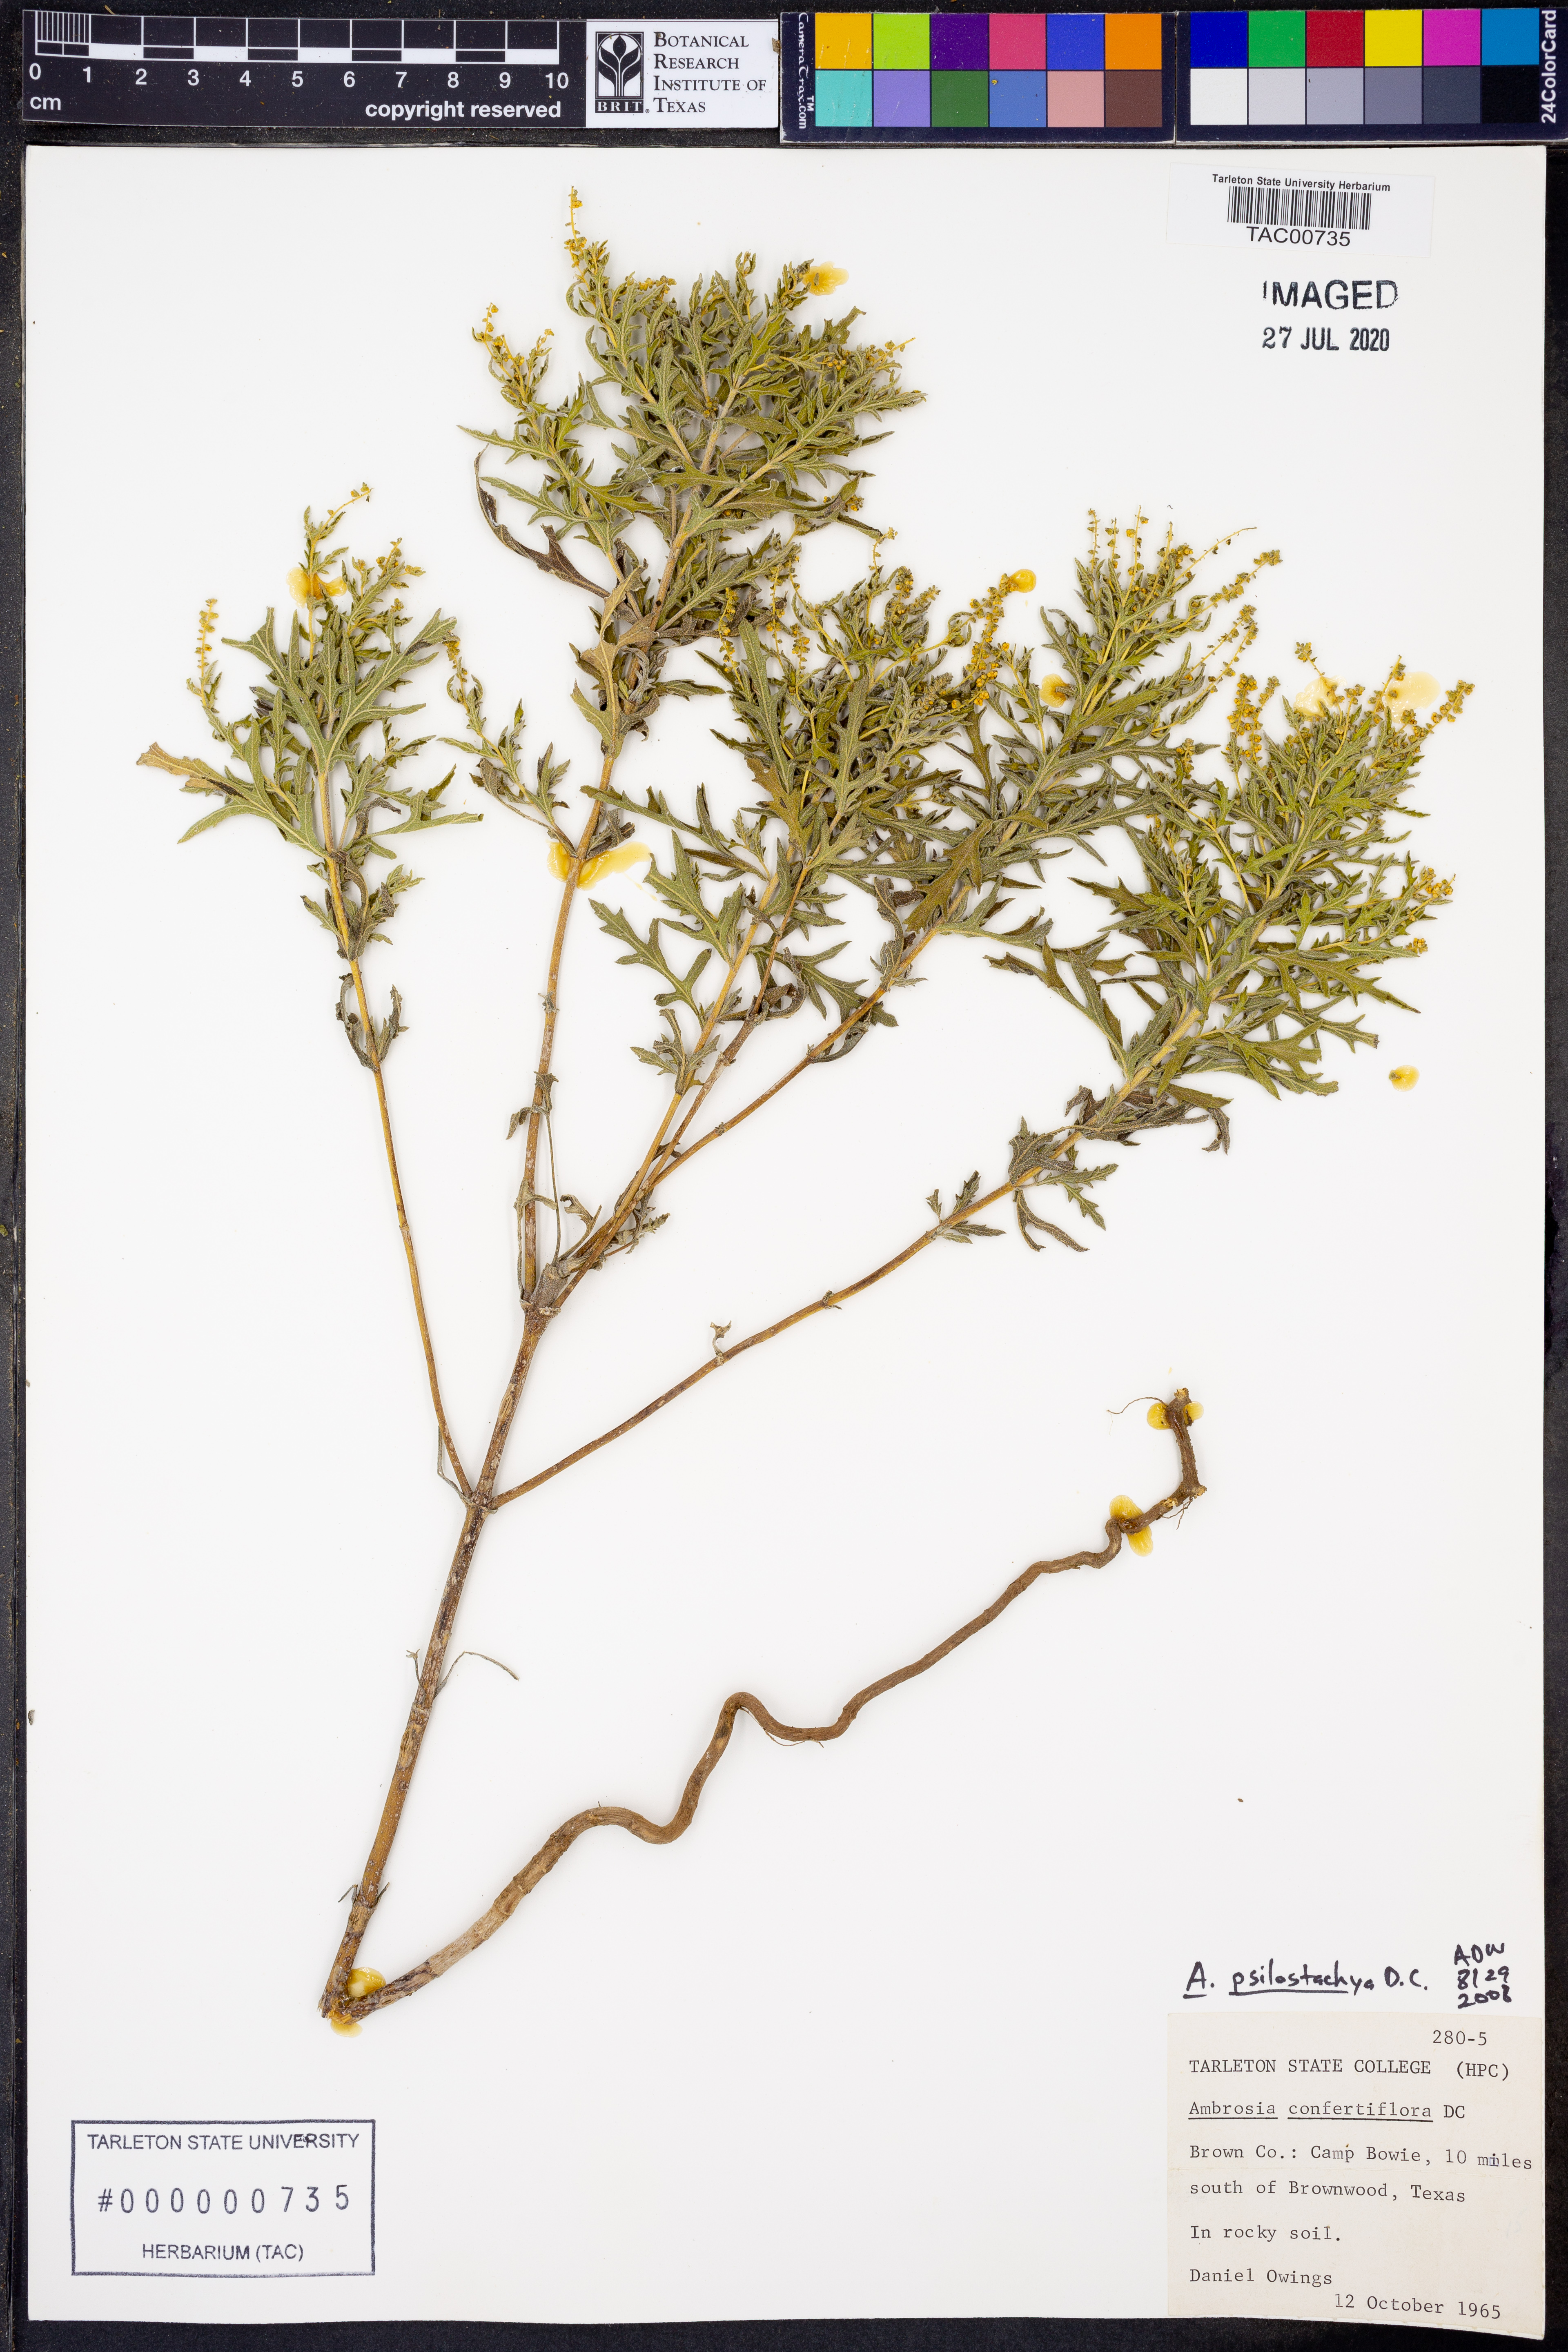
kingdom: Plantae
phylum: Tracheophyta
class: Magnoliopsida
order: Asterales
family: Asteraceae
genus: Ambrosia
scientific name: Ambrosia psilostachya
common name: Perennial ragweed
